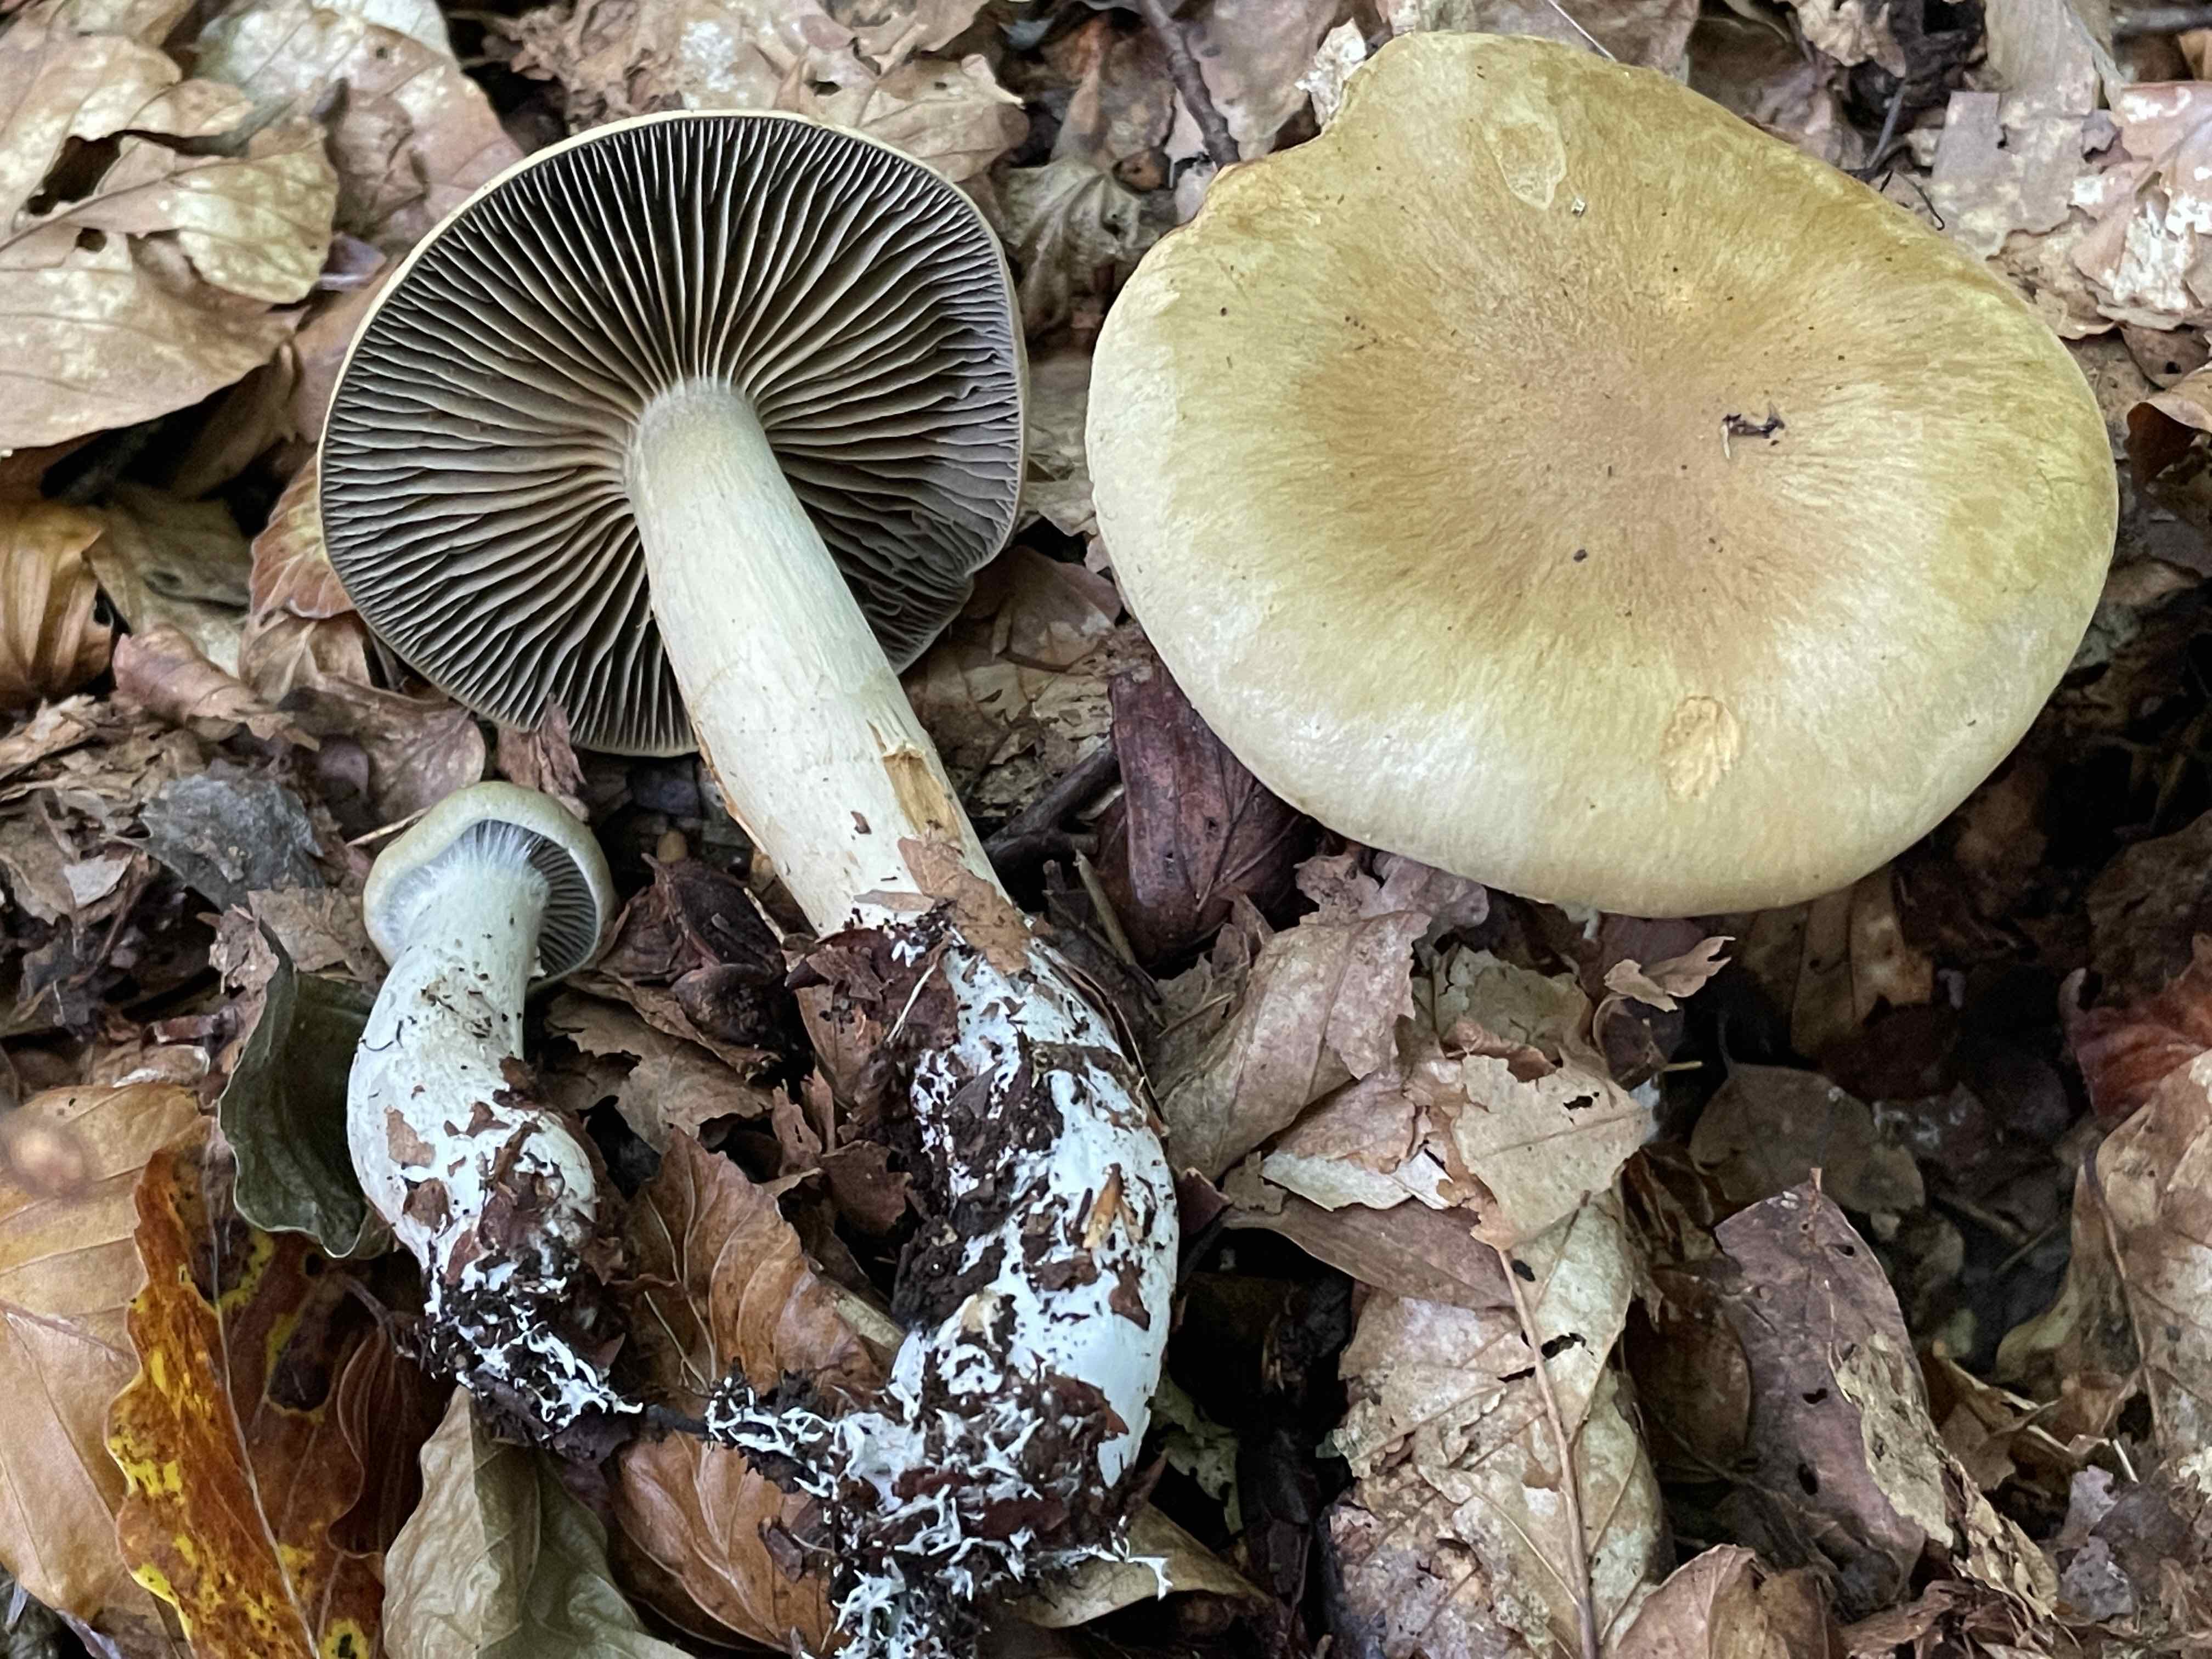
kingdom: Fungi
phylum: Basidiomycota
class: Agaricomycetes
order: Agaricales
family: Cortinariaceae
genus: Cortinarius
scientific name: Cortinarius subtortus
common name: olivengul slørhat
